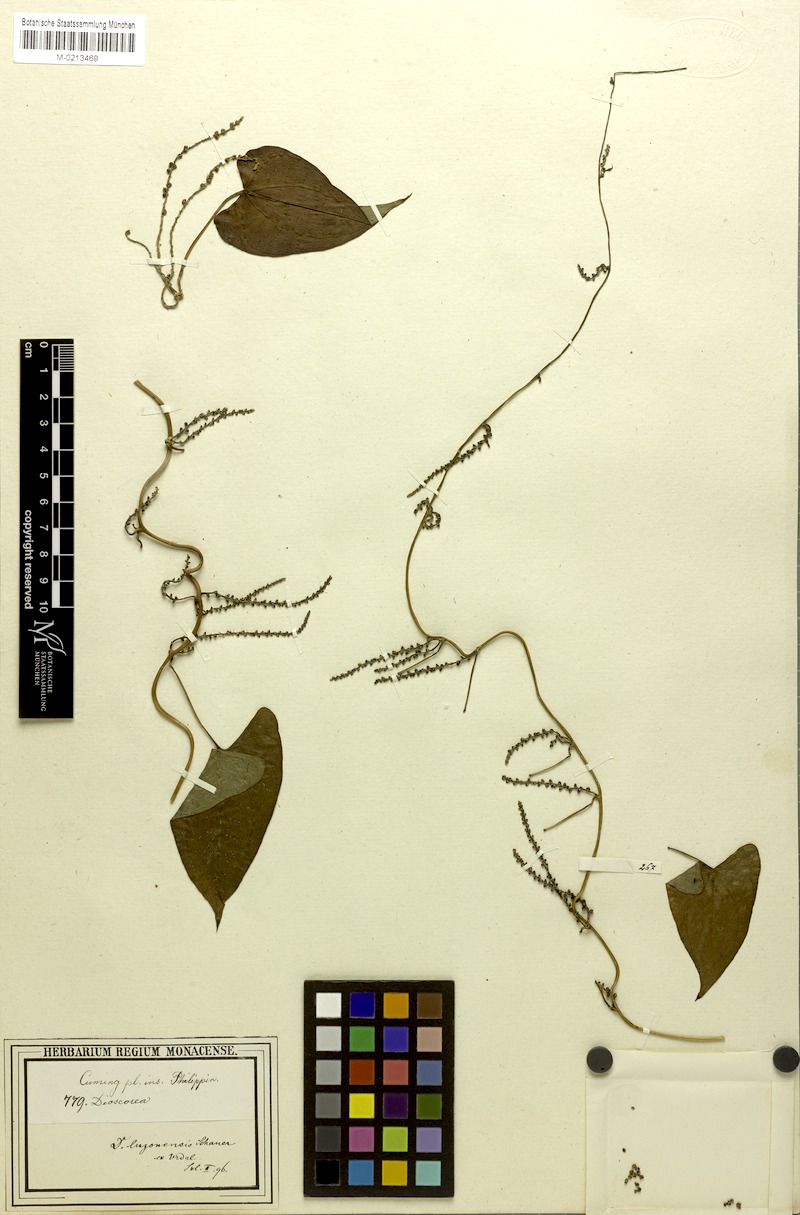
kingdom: Plantae
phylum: Tracheophyta
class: Liliopsida
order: Dioscoreales
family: Dioscoreaceae
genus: Dioscorea
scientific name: Dioscorea luzonensis
